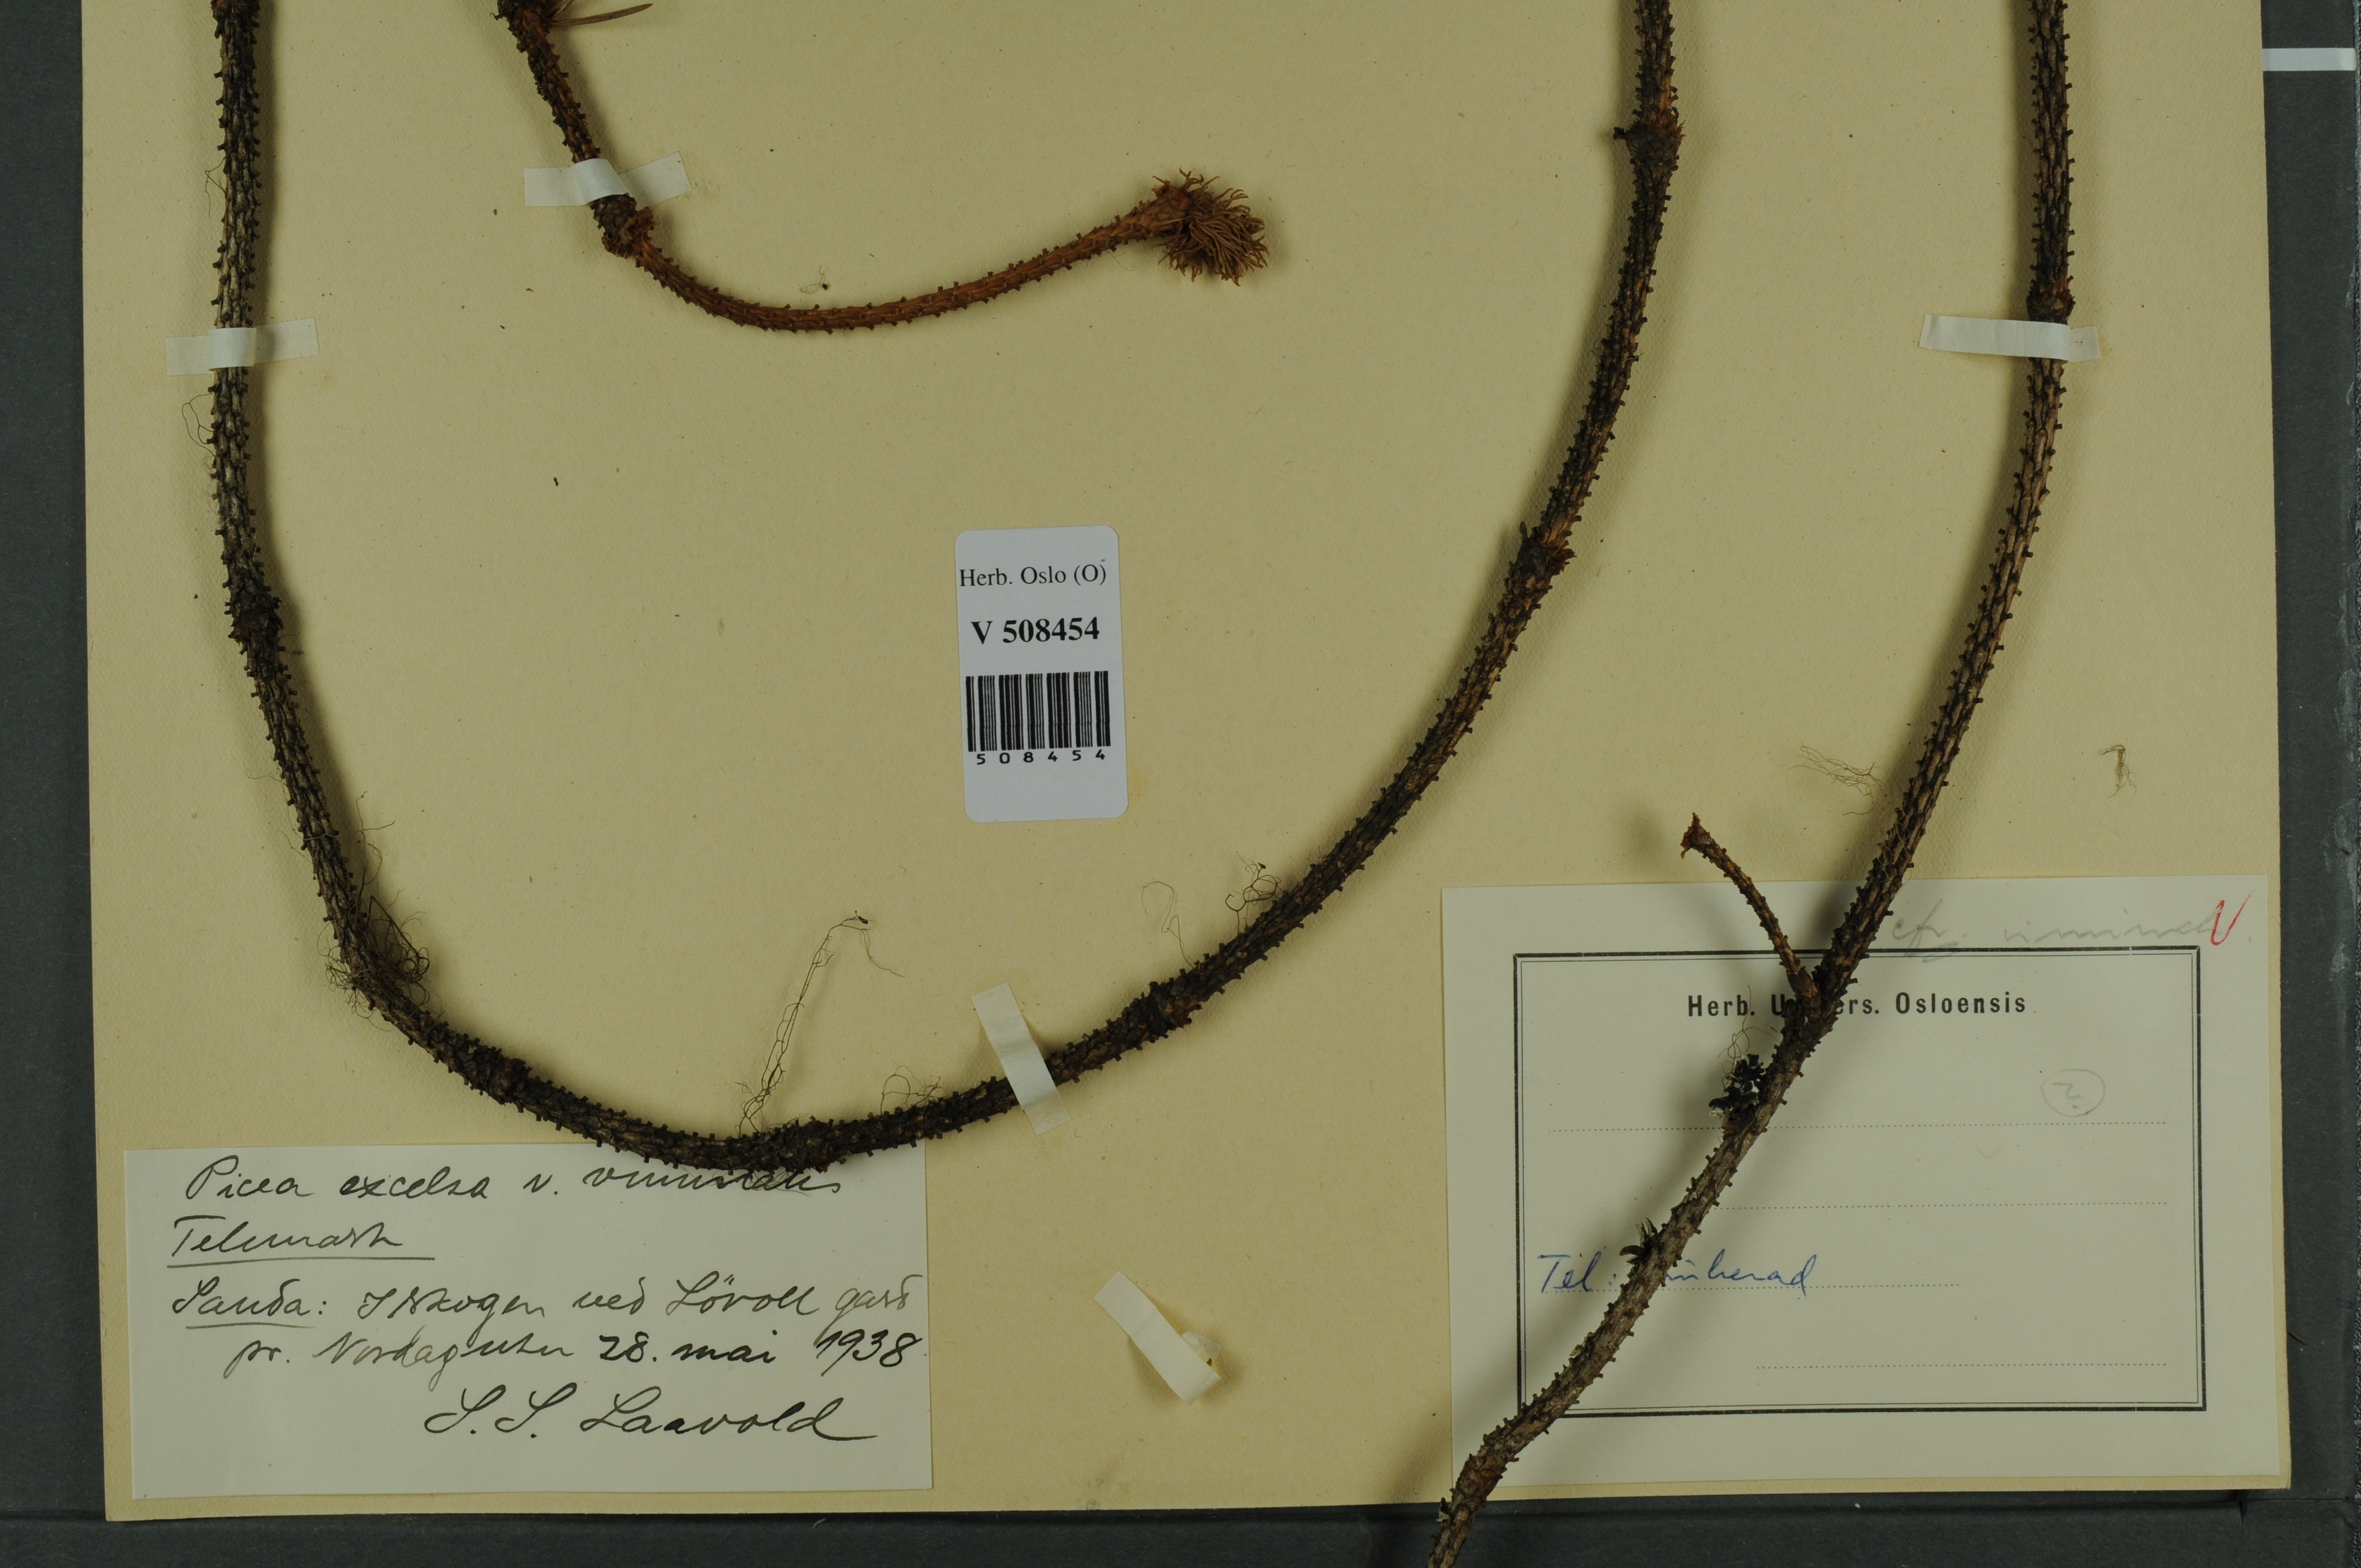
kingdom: Plantae
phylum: Tracheophyta
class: Pinopsida
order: Pinales
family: Pinaceae
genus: Picea
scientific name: Picea abies
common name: Norway spruce
